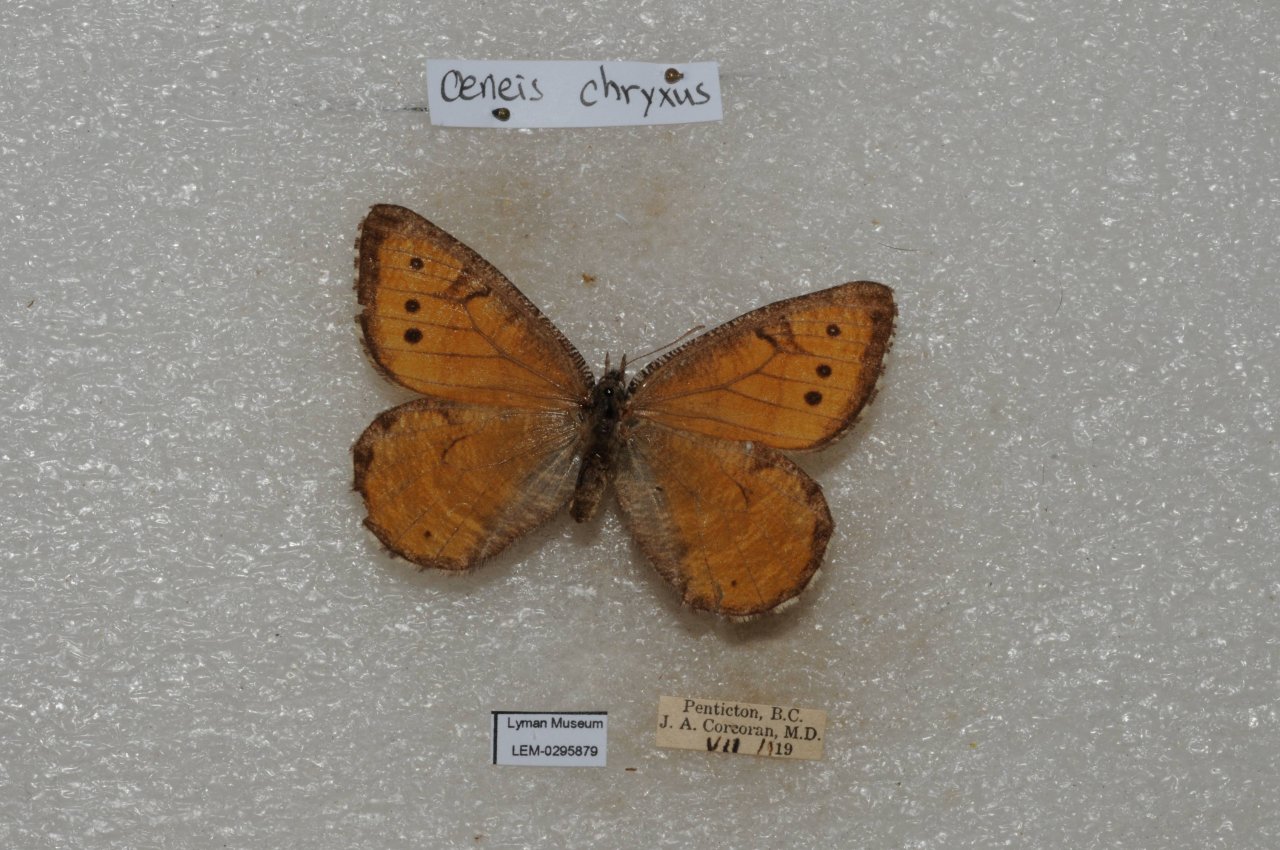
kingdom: Animalia
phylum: Arthropoda
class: Insecta
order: Lepidoptera
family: Nymphalidae
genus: Oeneis
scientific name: Oeneis chryxus
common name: Chryxus Arctic
